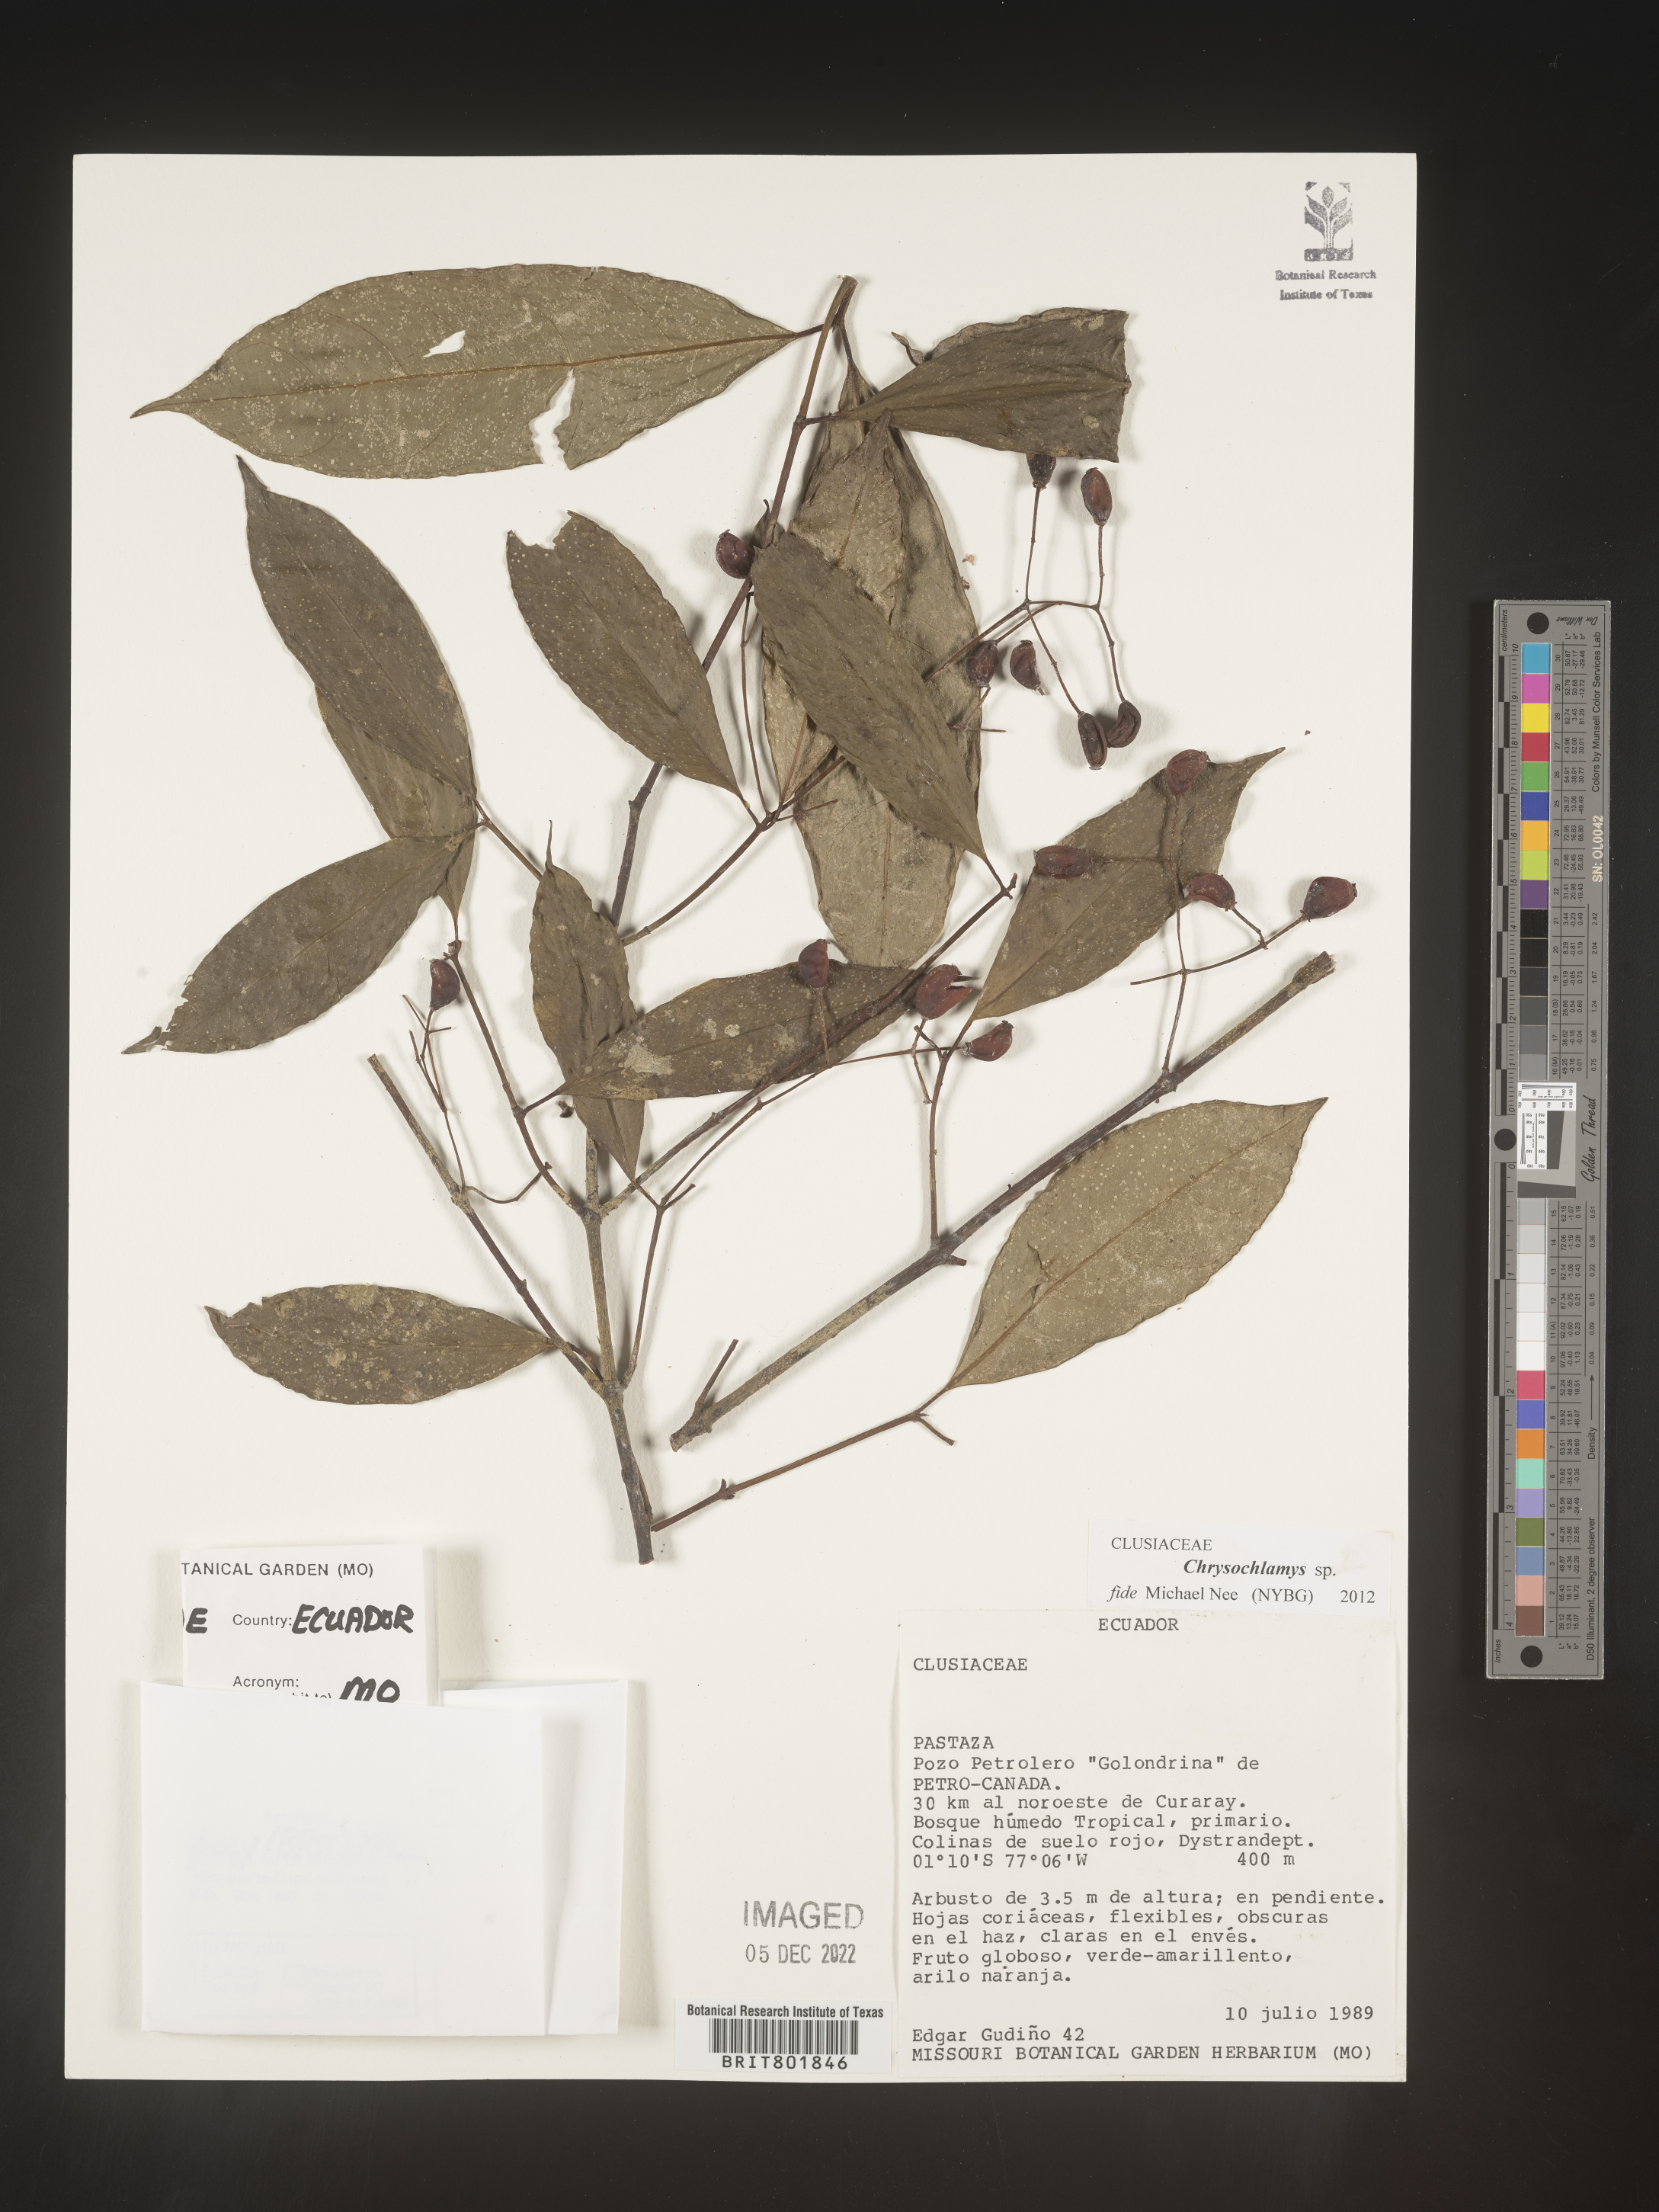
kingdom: Plantae
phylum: Tracheophyta
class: Magnoliopsida
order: Malpighiales
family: Clusiaceae
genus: Chrysochlamys
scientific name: Chrysochlamys
